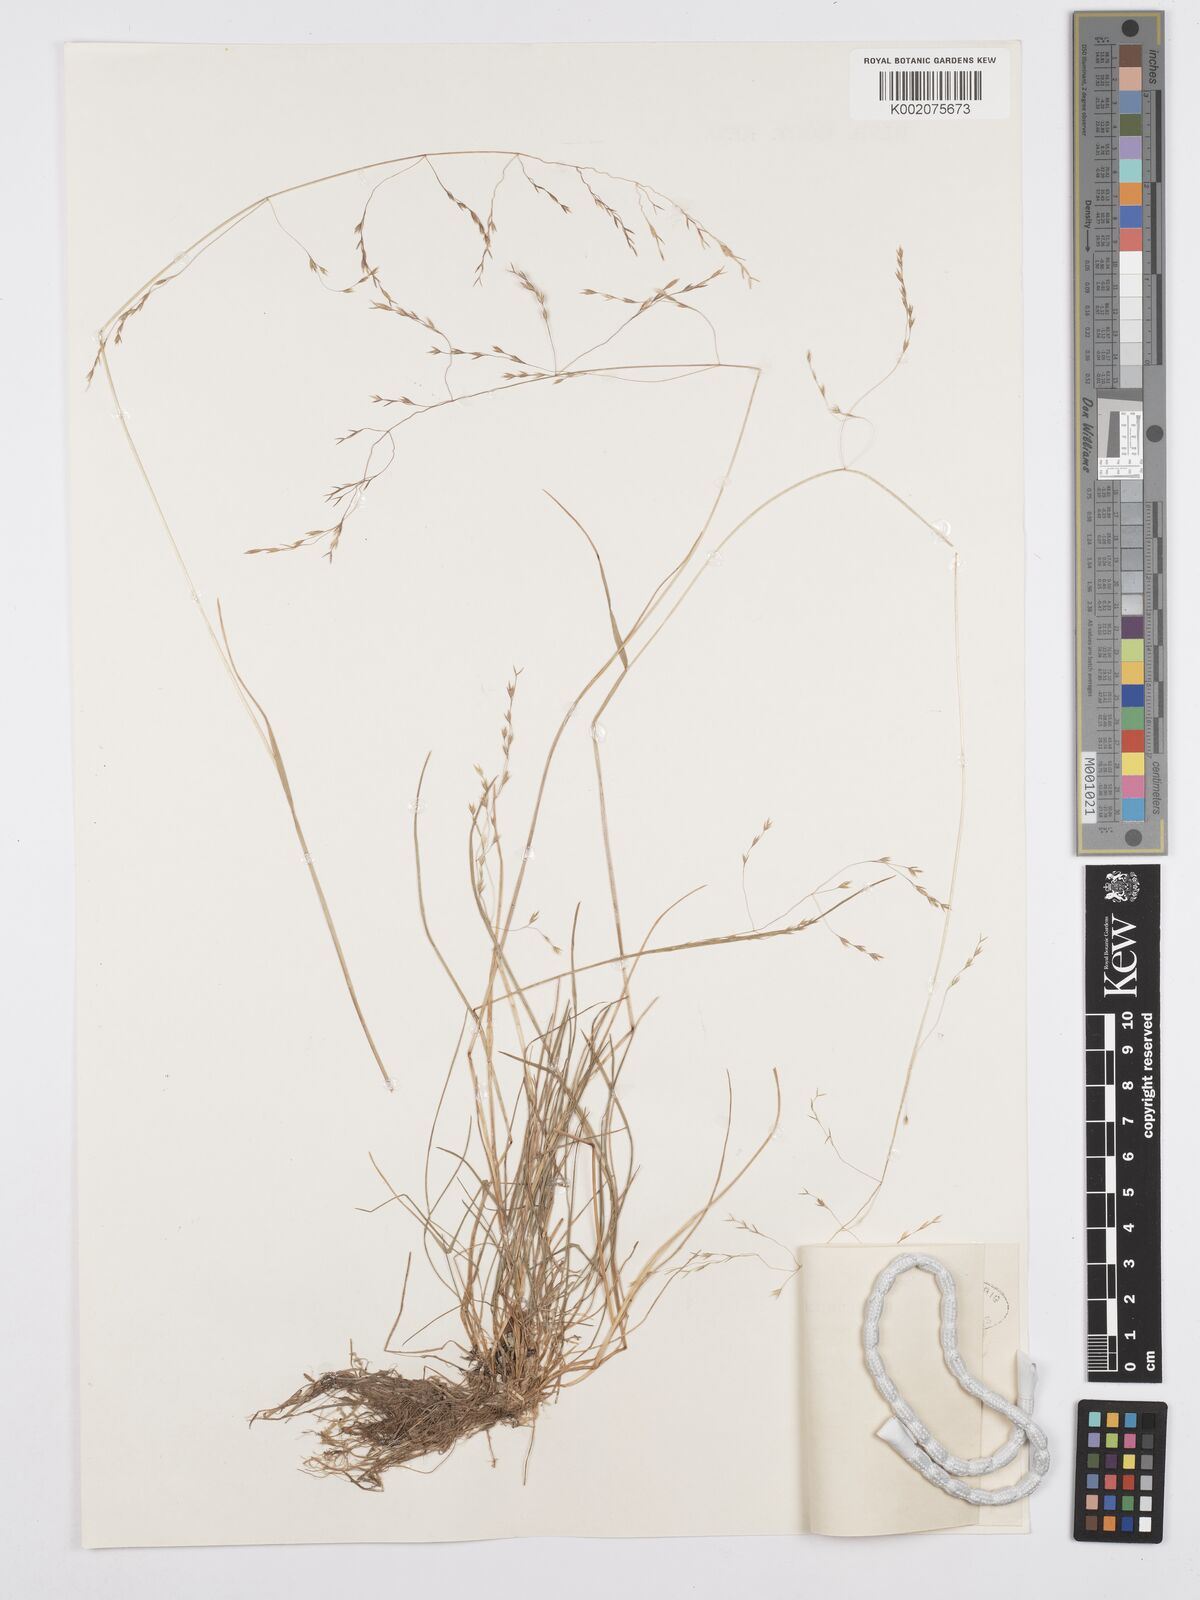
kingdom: Plantae
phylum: Tracheophyta
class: Liliopsida
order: Poales
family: Poaceae
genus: Poa
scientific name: Poa perrieri
